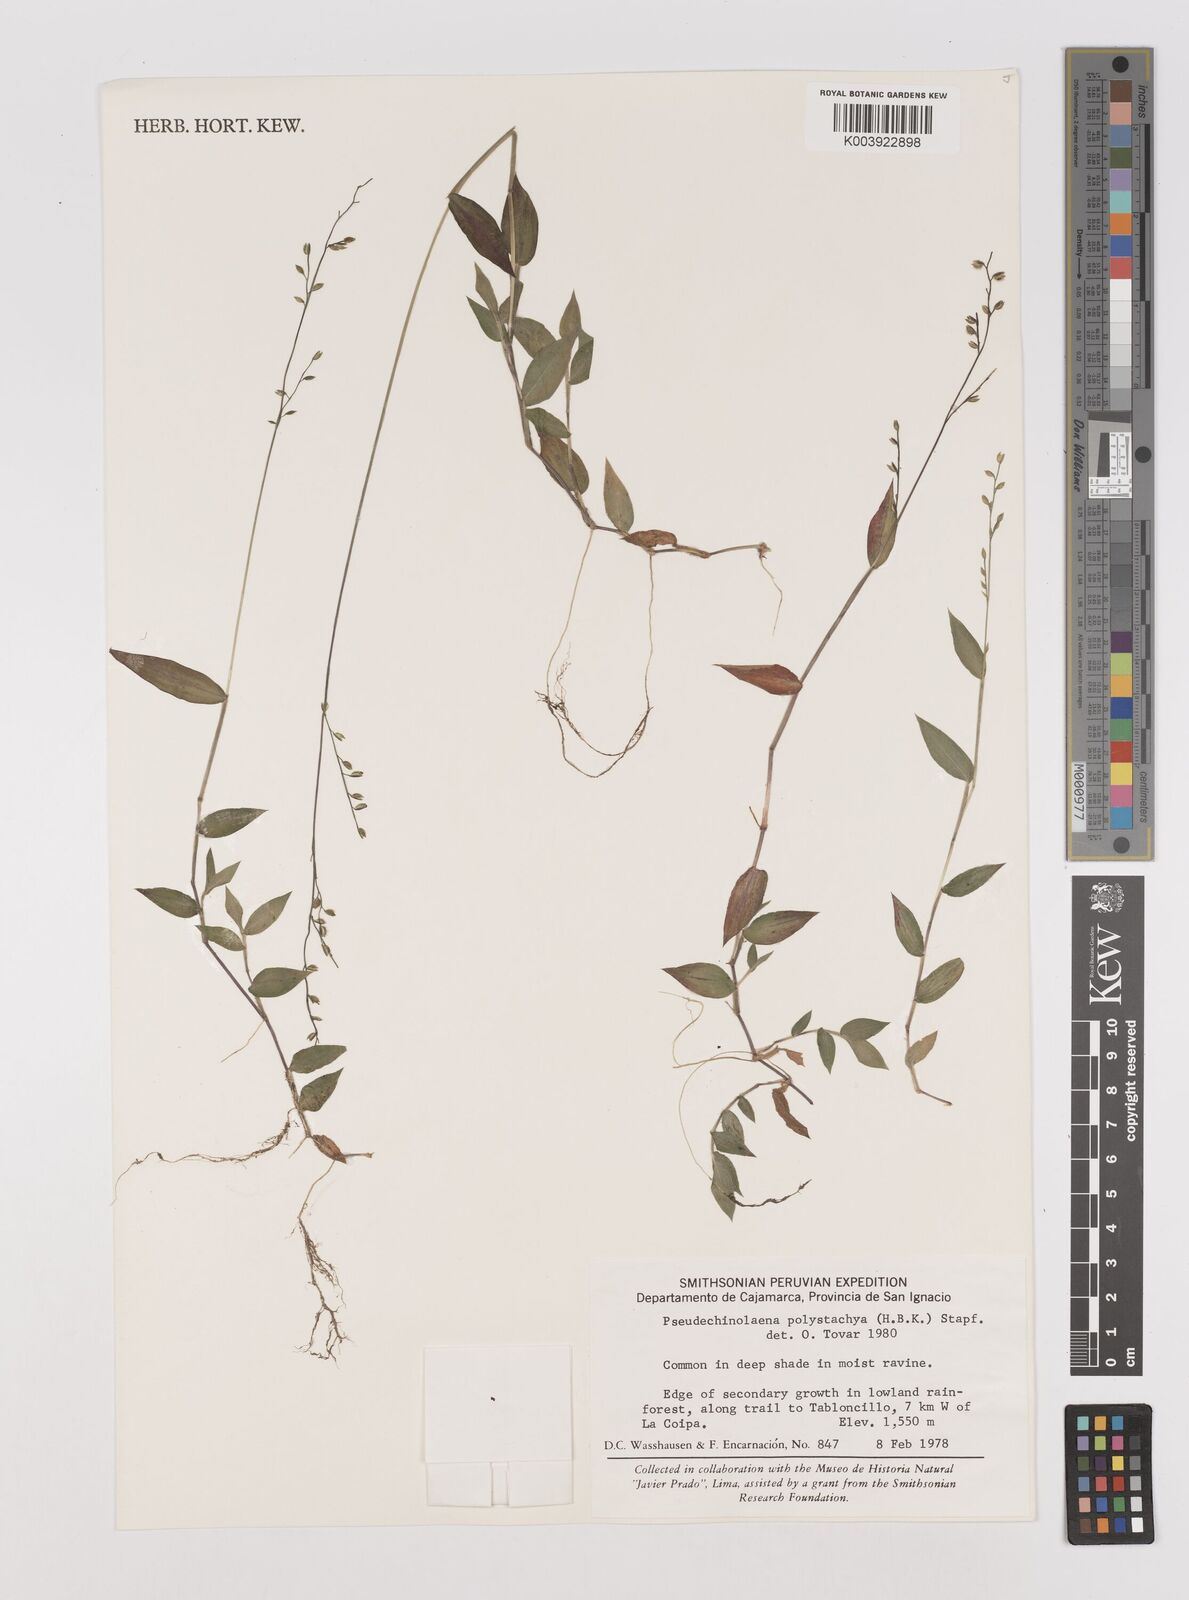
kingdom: Plantae
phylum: Tracheophyta
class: Liliopsida
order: Poales
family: Poaceae
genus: Pseudechinolaena
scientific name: Pseudechinolaena polystachya
